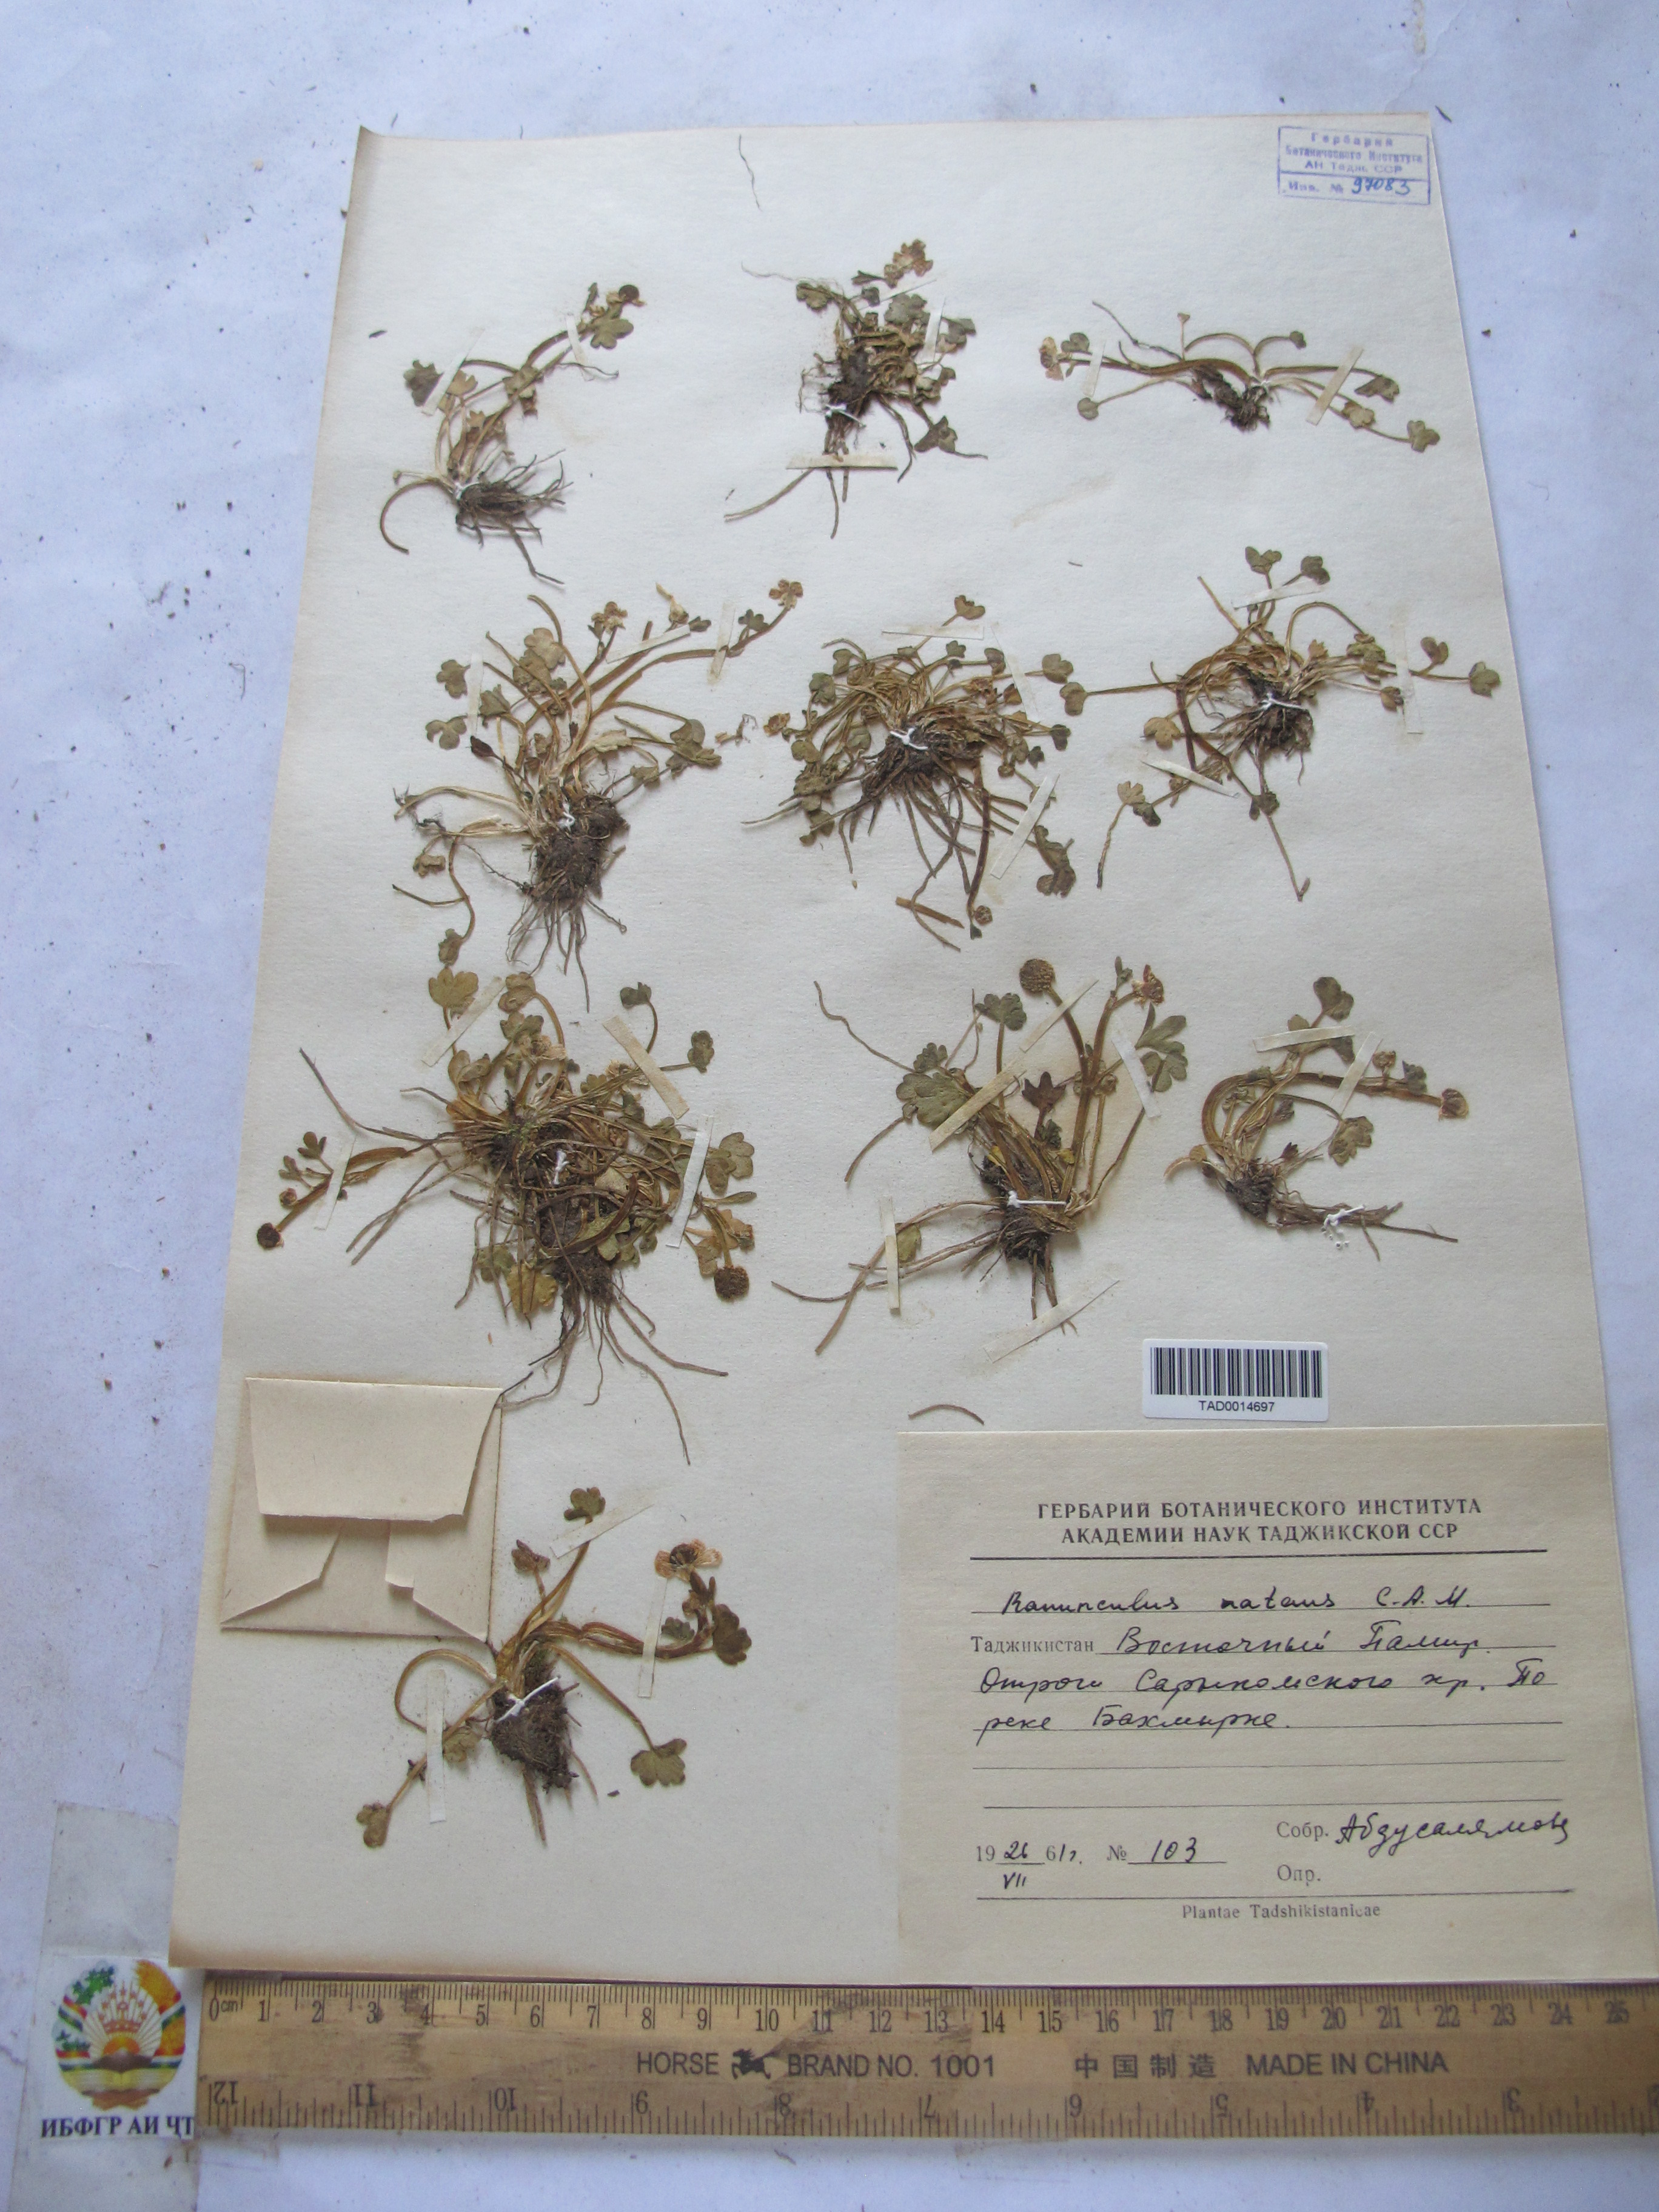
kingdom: Plantae
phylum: Tracheophyta
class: Magnoliopsida
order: Ranunculales
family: Ranunculaceae
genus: Ranunculus
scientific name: Ranunculus natans
